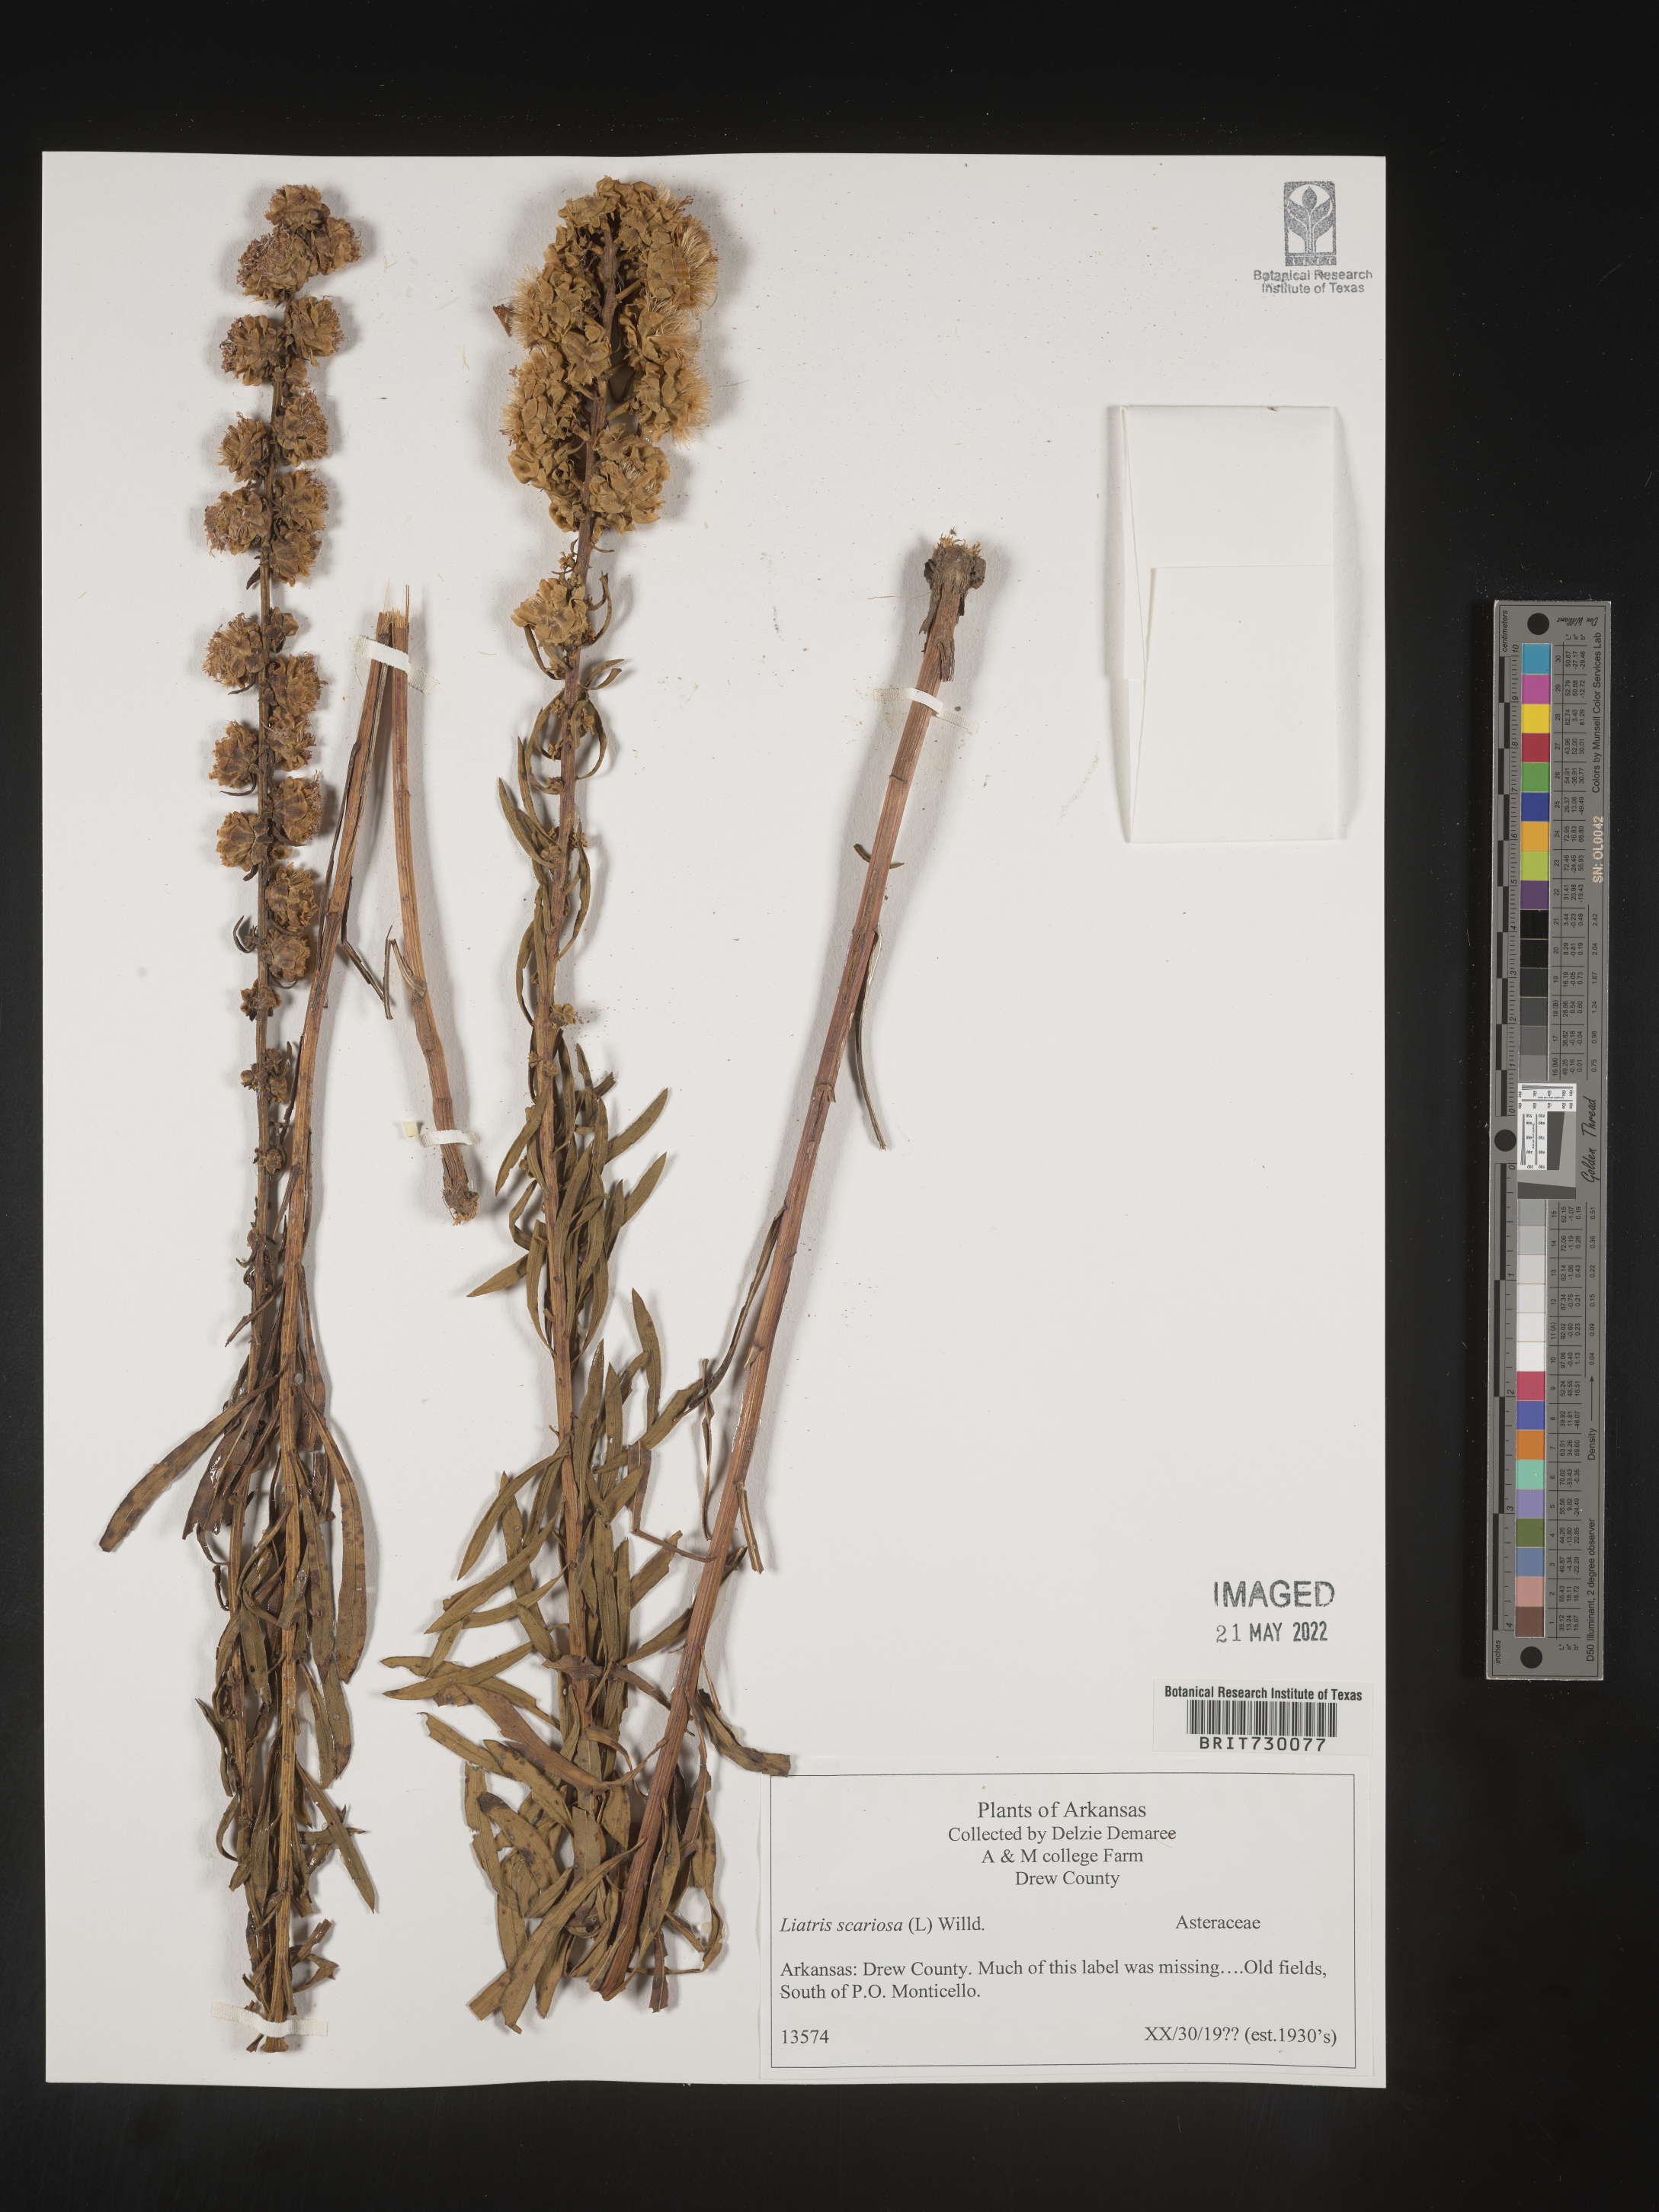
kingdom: Plantae
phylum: Tracheophyta
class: Magnoliopsida
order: Asterales
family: Asteraceae
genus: Liatris
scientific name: Liatris aspera
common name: Lacerate blazing-star
